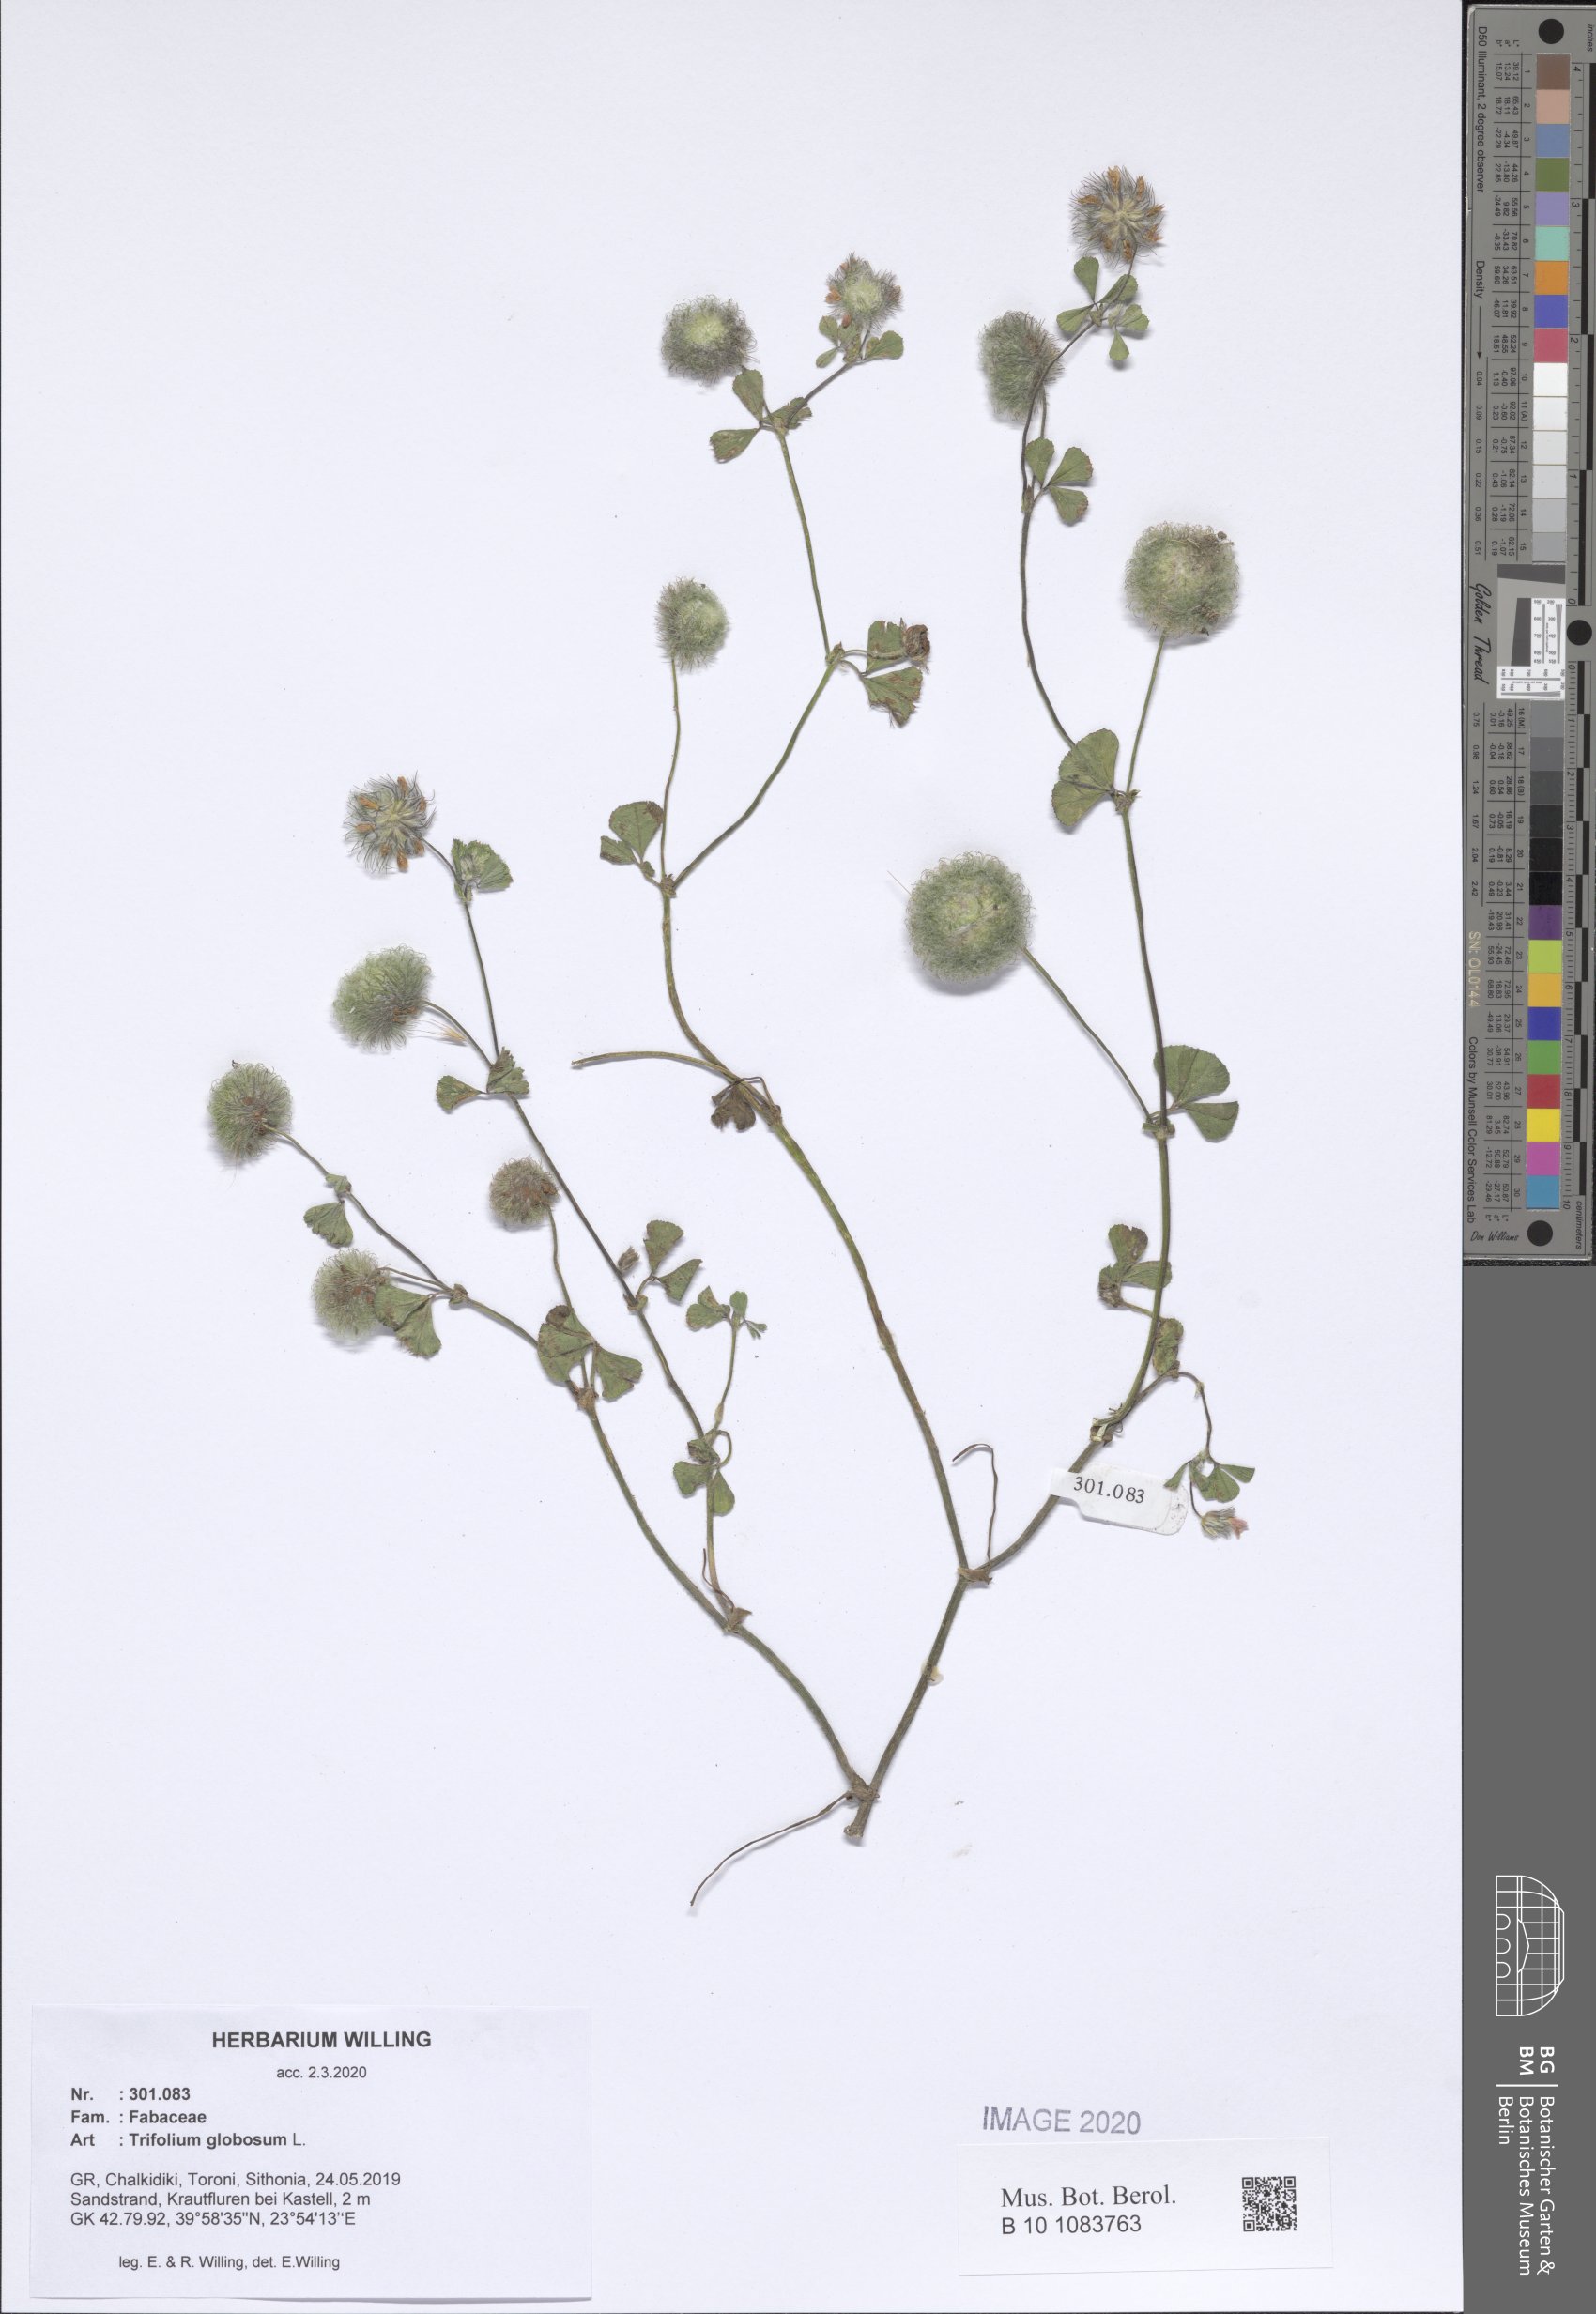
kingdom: Plantae
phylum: Tracheophyta
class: Magnoliopsida
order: Fabales
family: Fabaceae
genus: Trifolium
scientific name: Trifolium globosum
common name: Round-head clover
